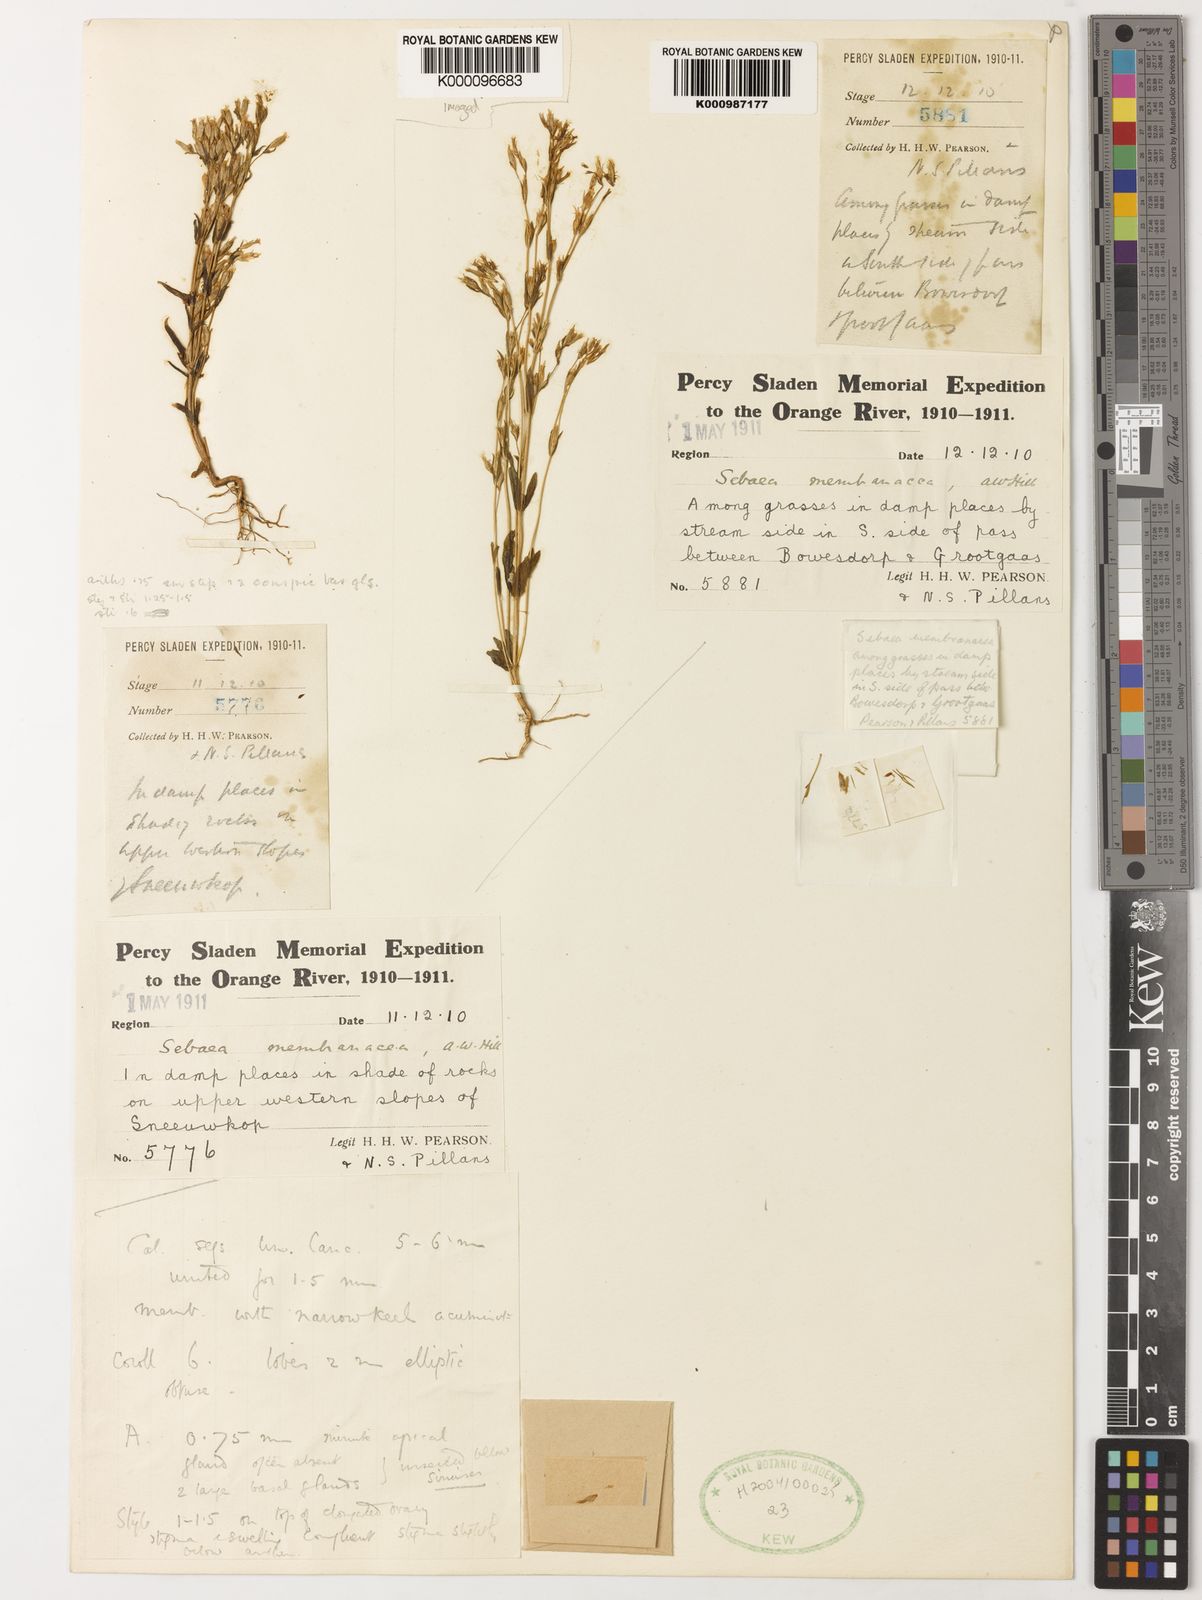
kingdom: Plantae
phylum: Tracheophyta
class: Magnoliopsida
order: Gentianales
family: Gentianaceae
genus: Sebaea
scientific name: Sebaea membranacea
